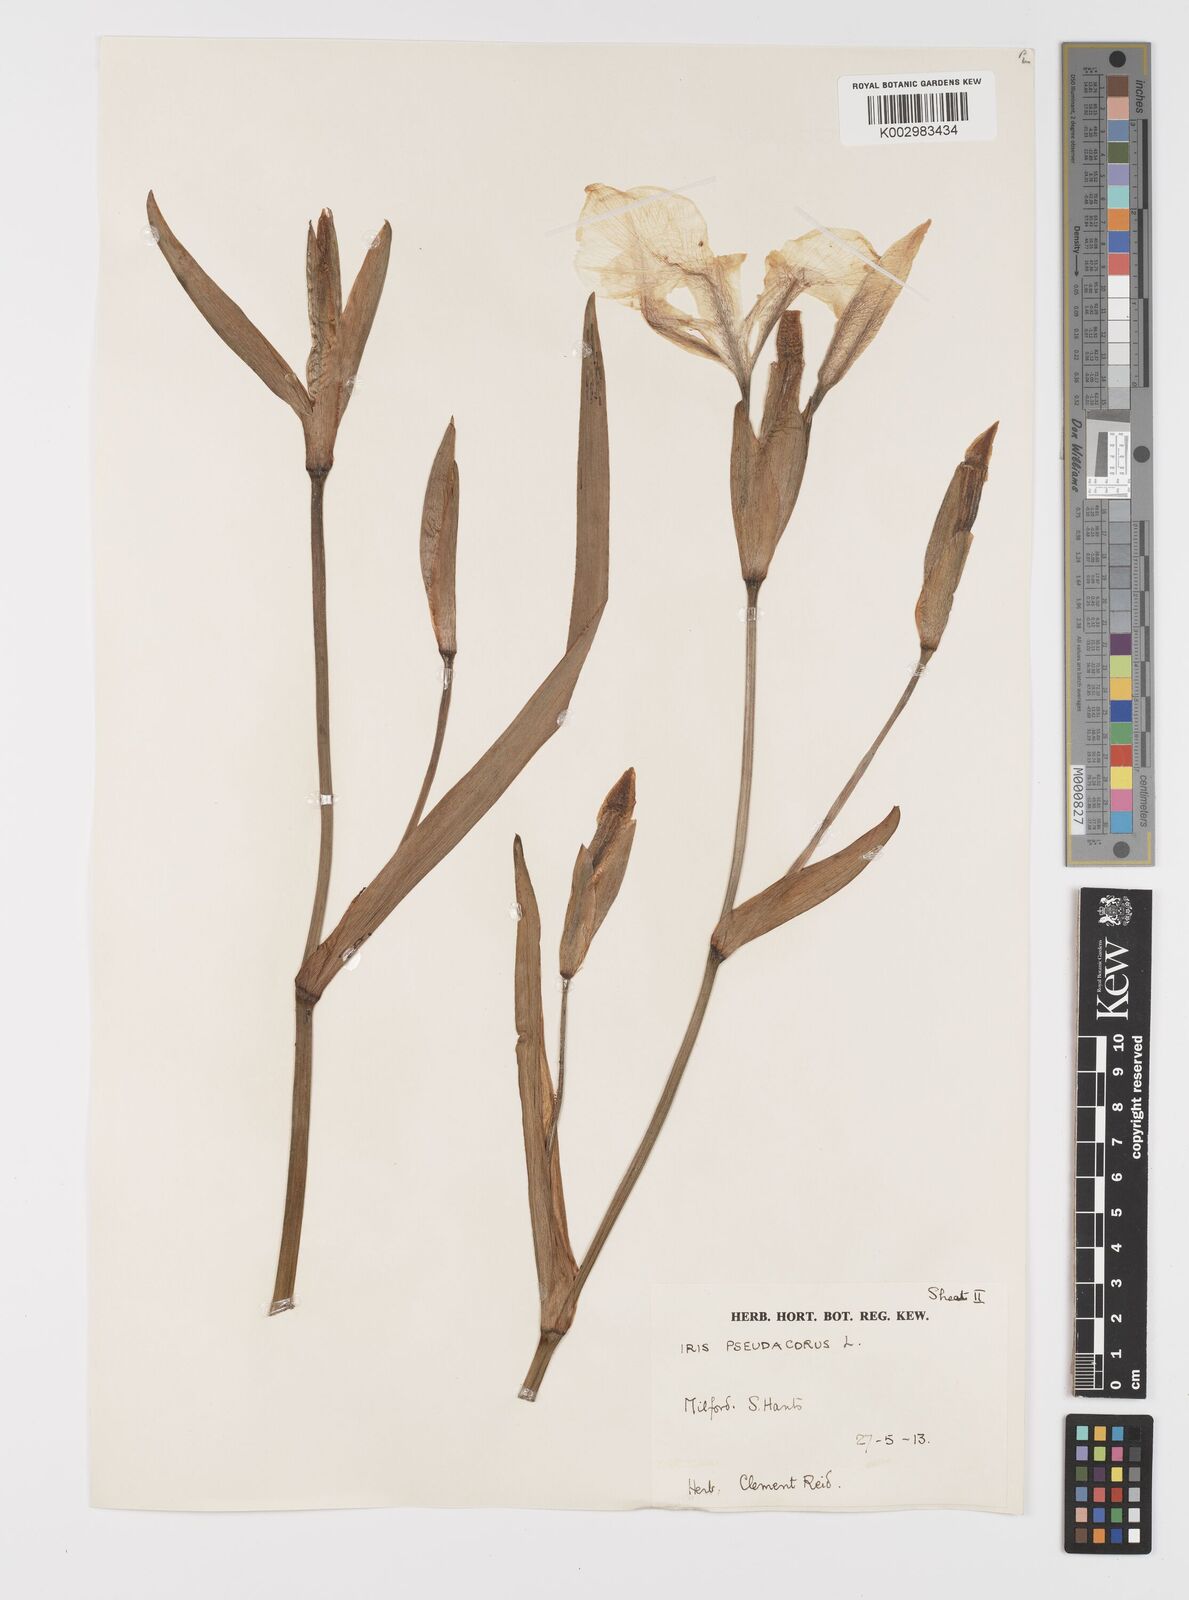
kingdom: Plantae
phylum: Tracheophyta
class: Liliopsida
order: Asparagales
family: Iridaceae
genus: Iris
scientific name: Iris pseudacorus
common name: Yellow flag
